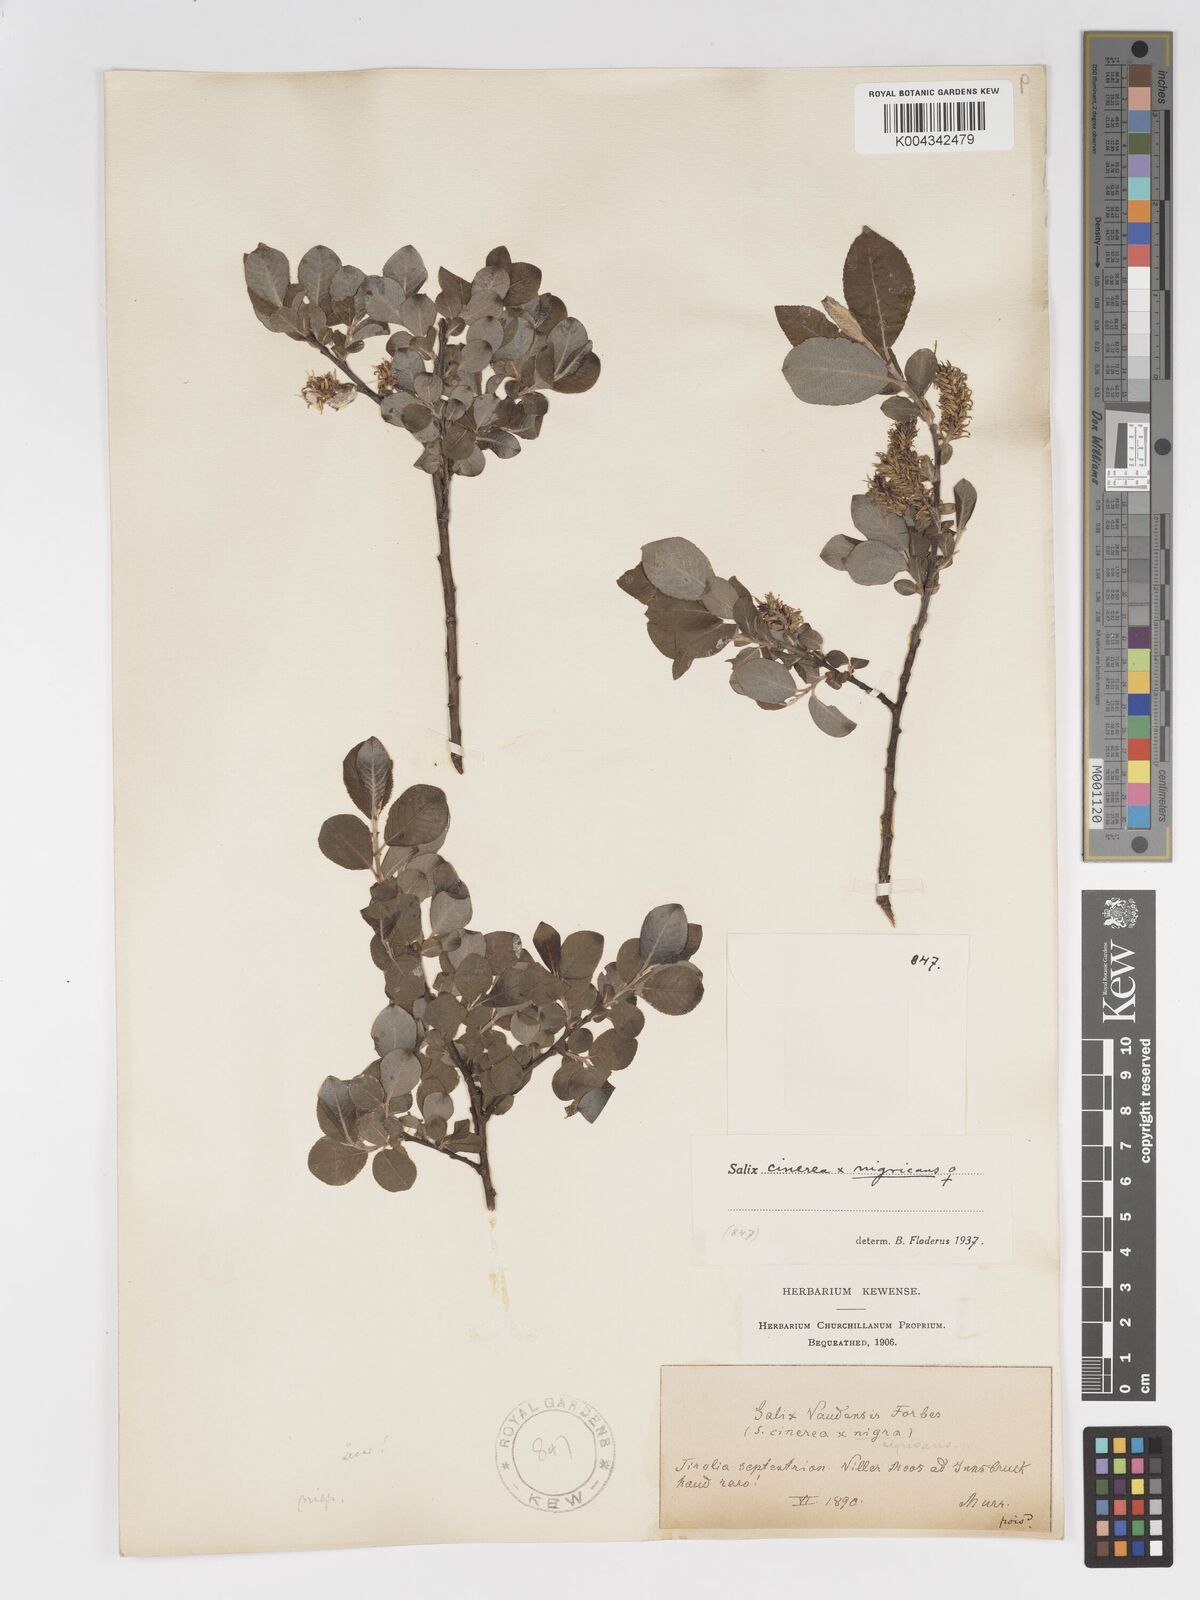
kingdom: Plantae
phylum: Tracheophyta
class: Magnoliopsida
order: Malpighiales
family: Salicaceae
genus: Salix
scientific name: Salix
